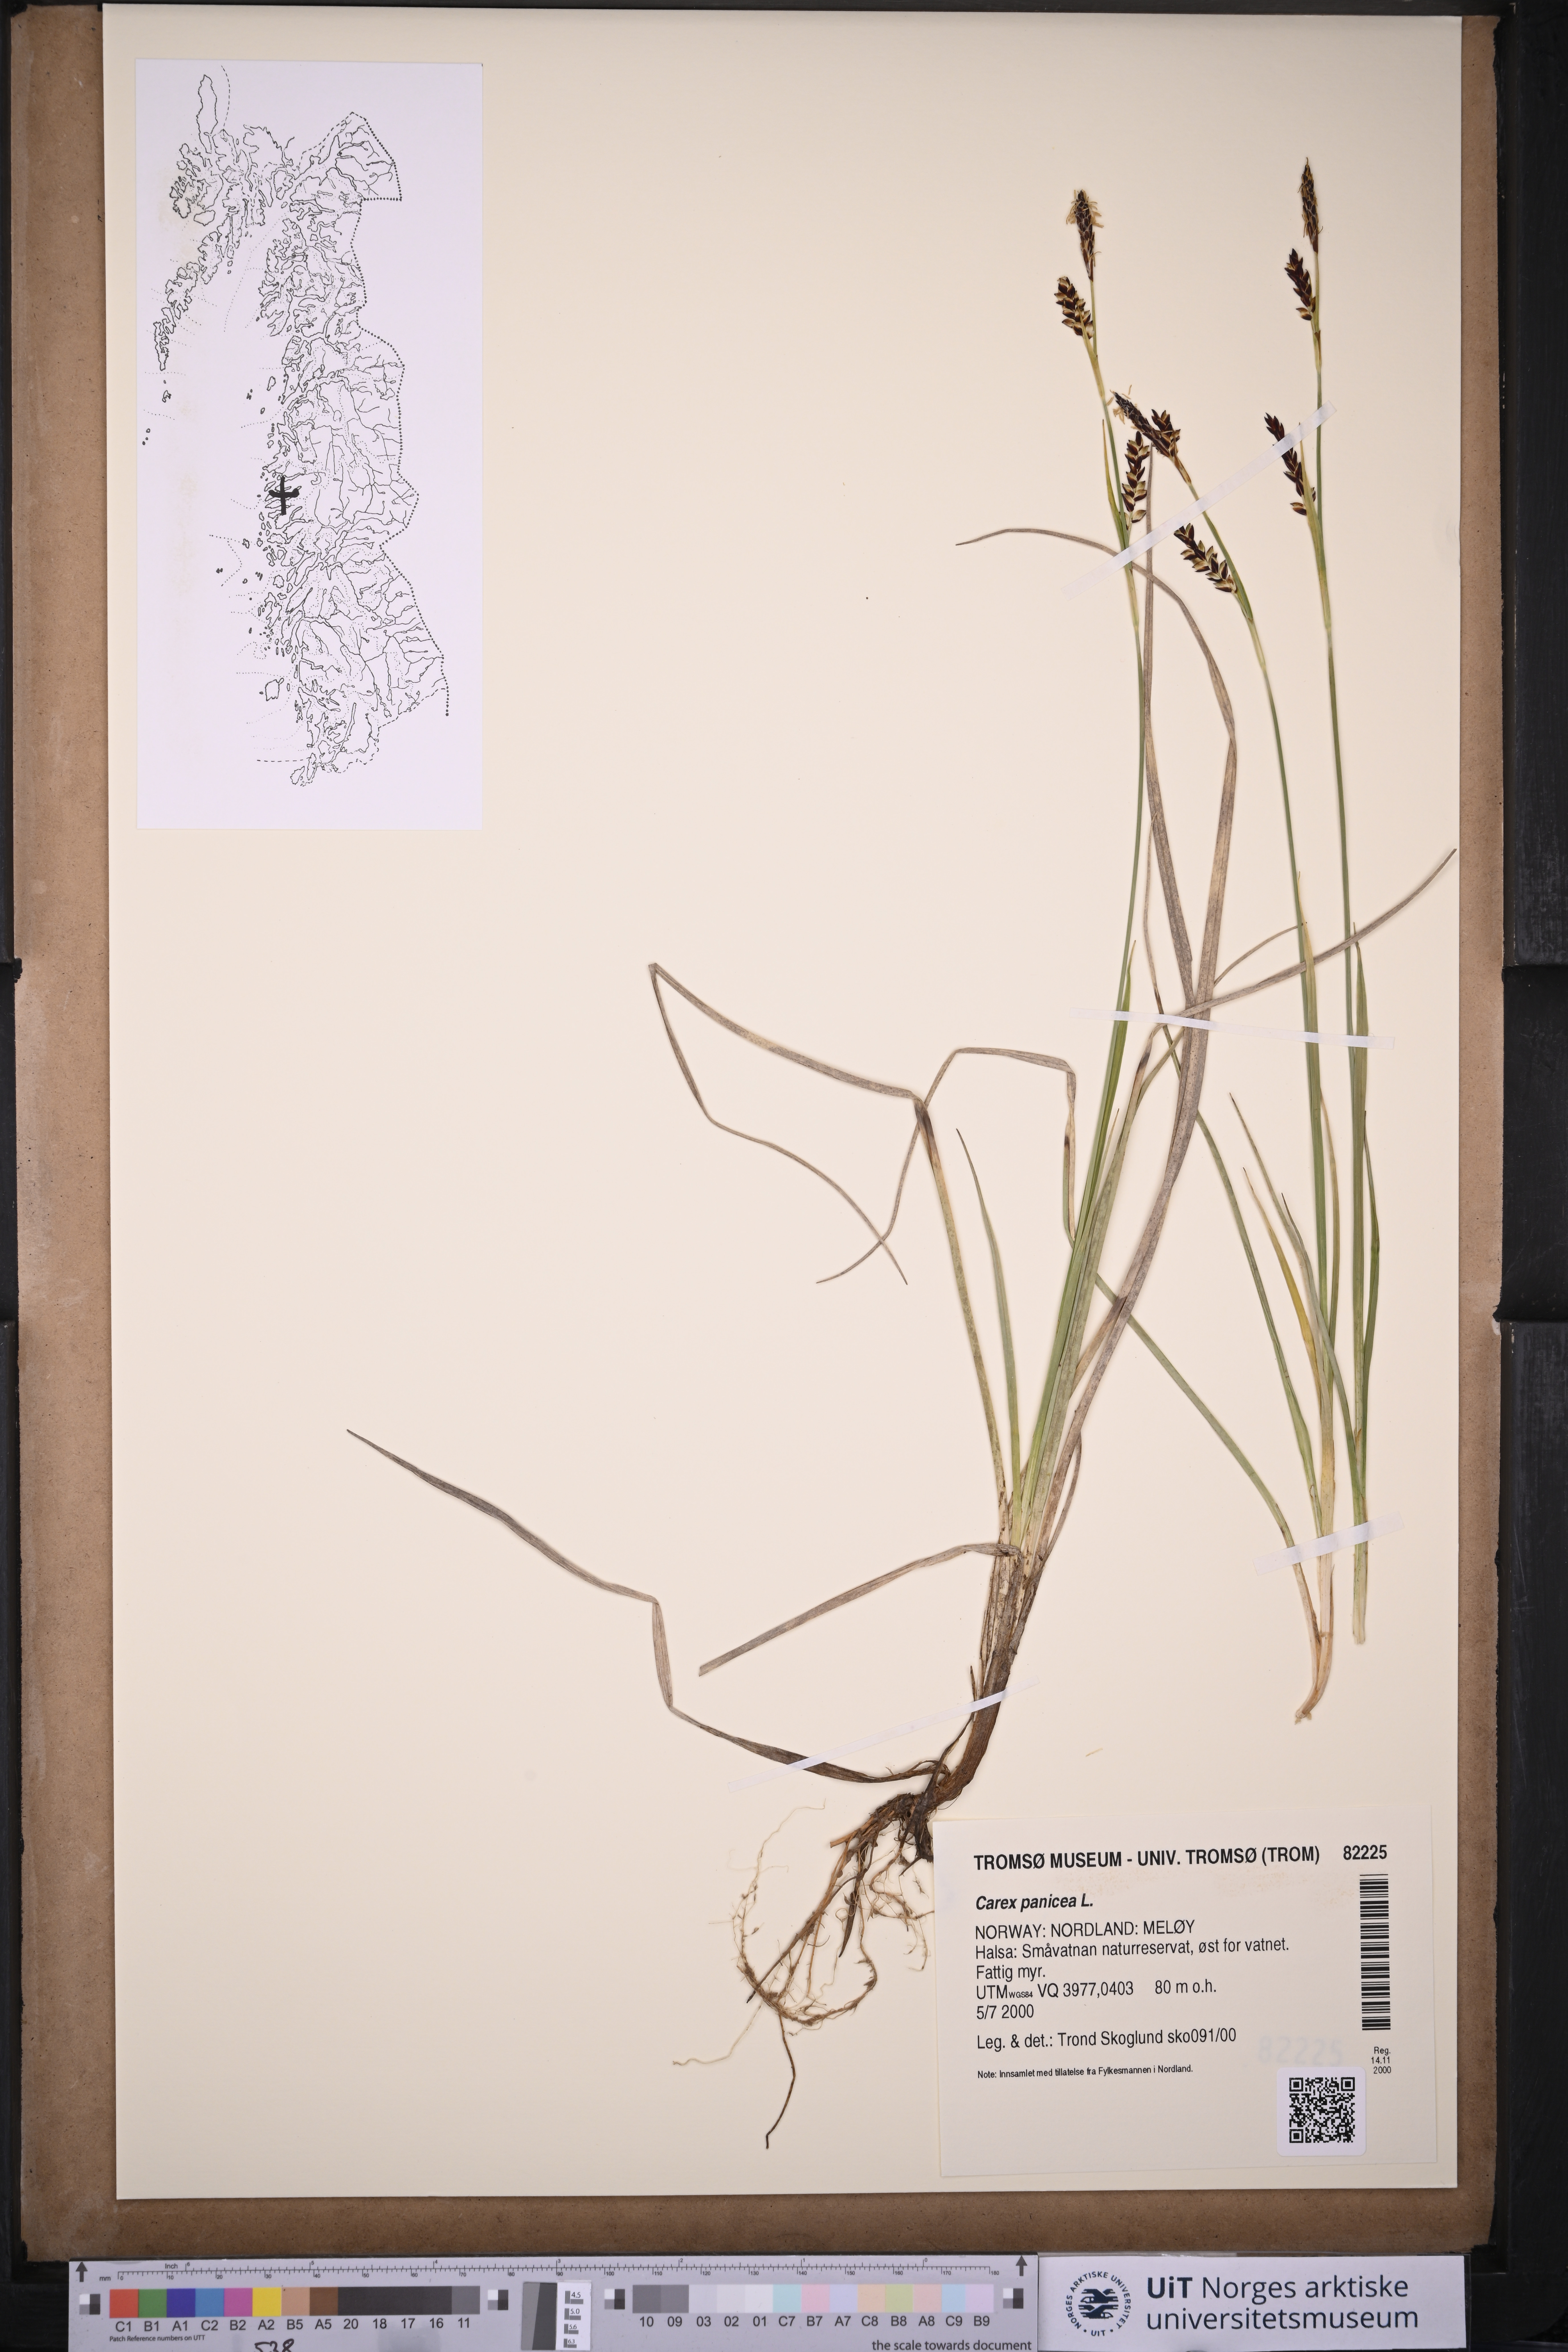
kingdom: Plantae
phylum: Tracheophyta
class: Liliopsida
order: Poales
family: Cyperaceae
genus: Carex
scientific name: Carex panicea
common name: Carnation sedge
